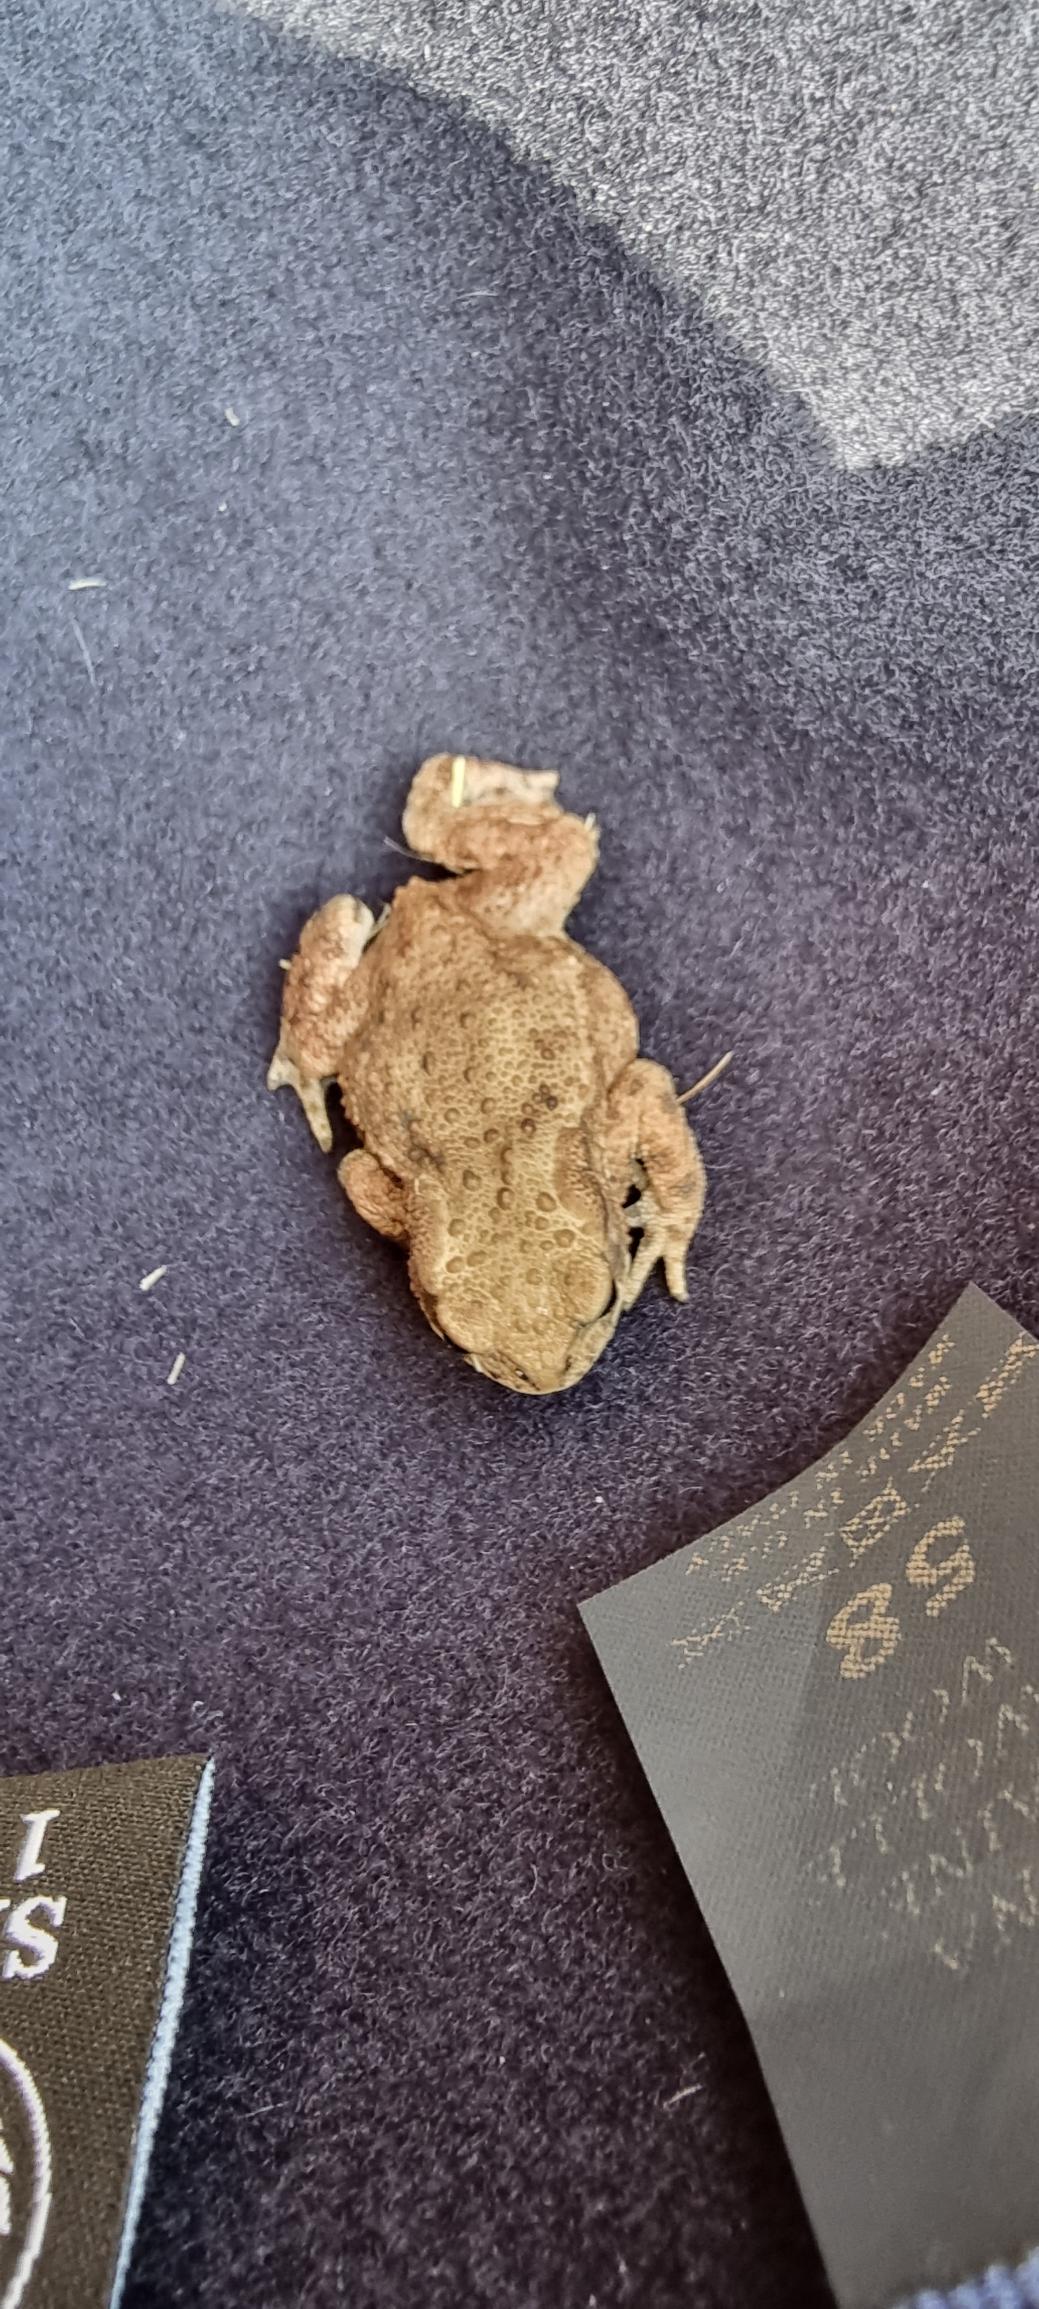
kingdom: Animalia
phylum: Chordata
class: Amphibia
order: Anura
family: Bufonidae
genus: Bufo
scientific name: Bufo bufo
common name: Skrubtudse
